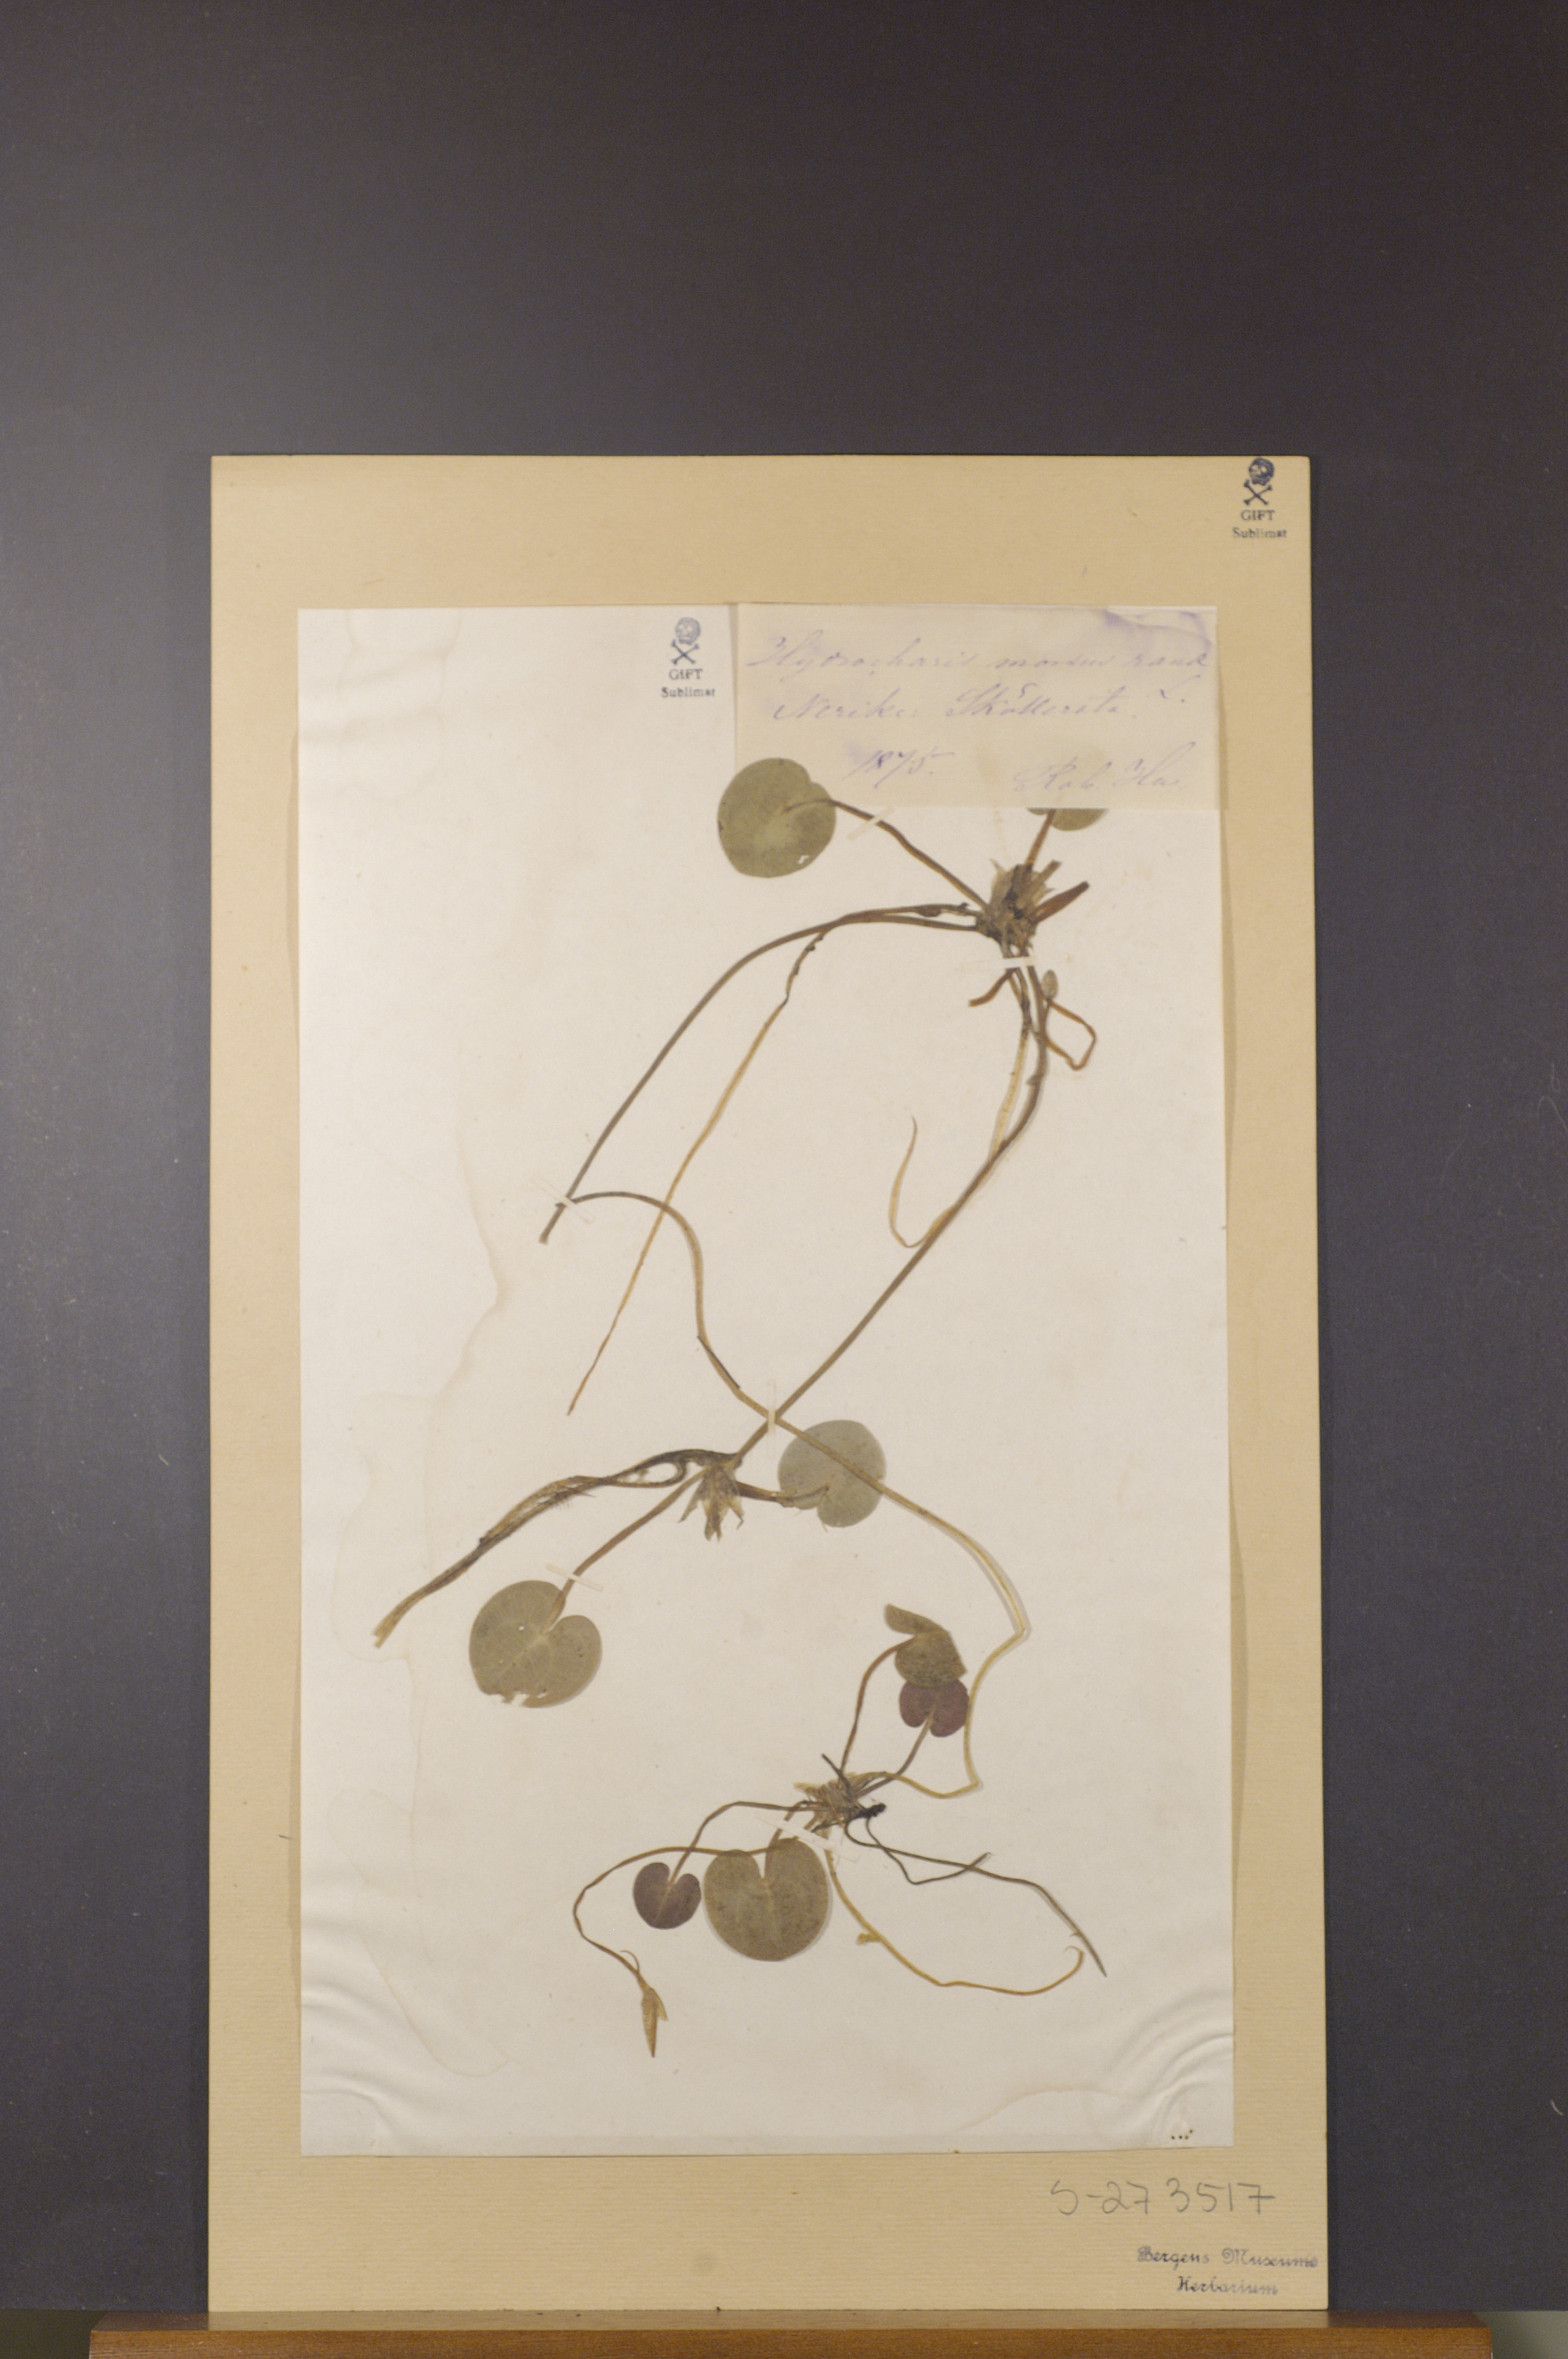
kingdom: Plantae
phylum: Tracheophyta
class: Liliopsida
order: Alismatales
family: Hydrocharitaceae
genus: Hydrocharis
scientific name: Hydrocharis morsus-ranae
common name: Frogbit
